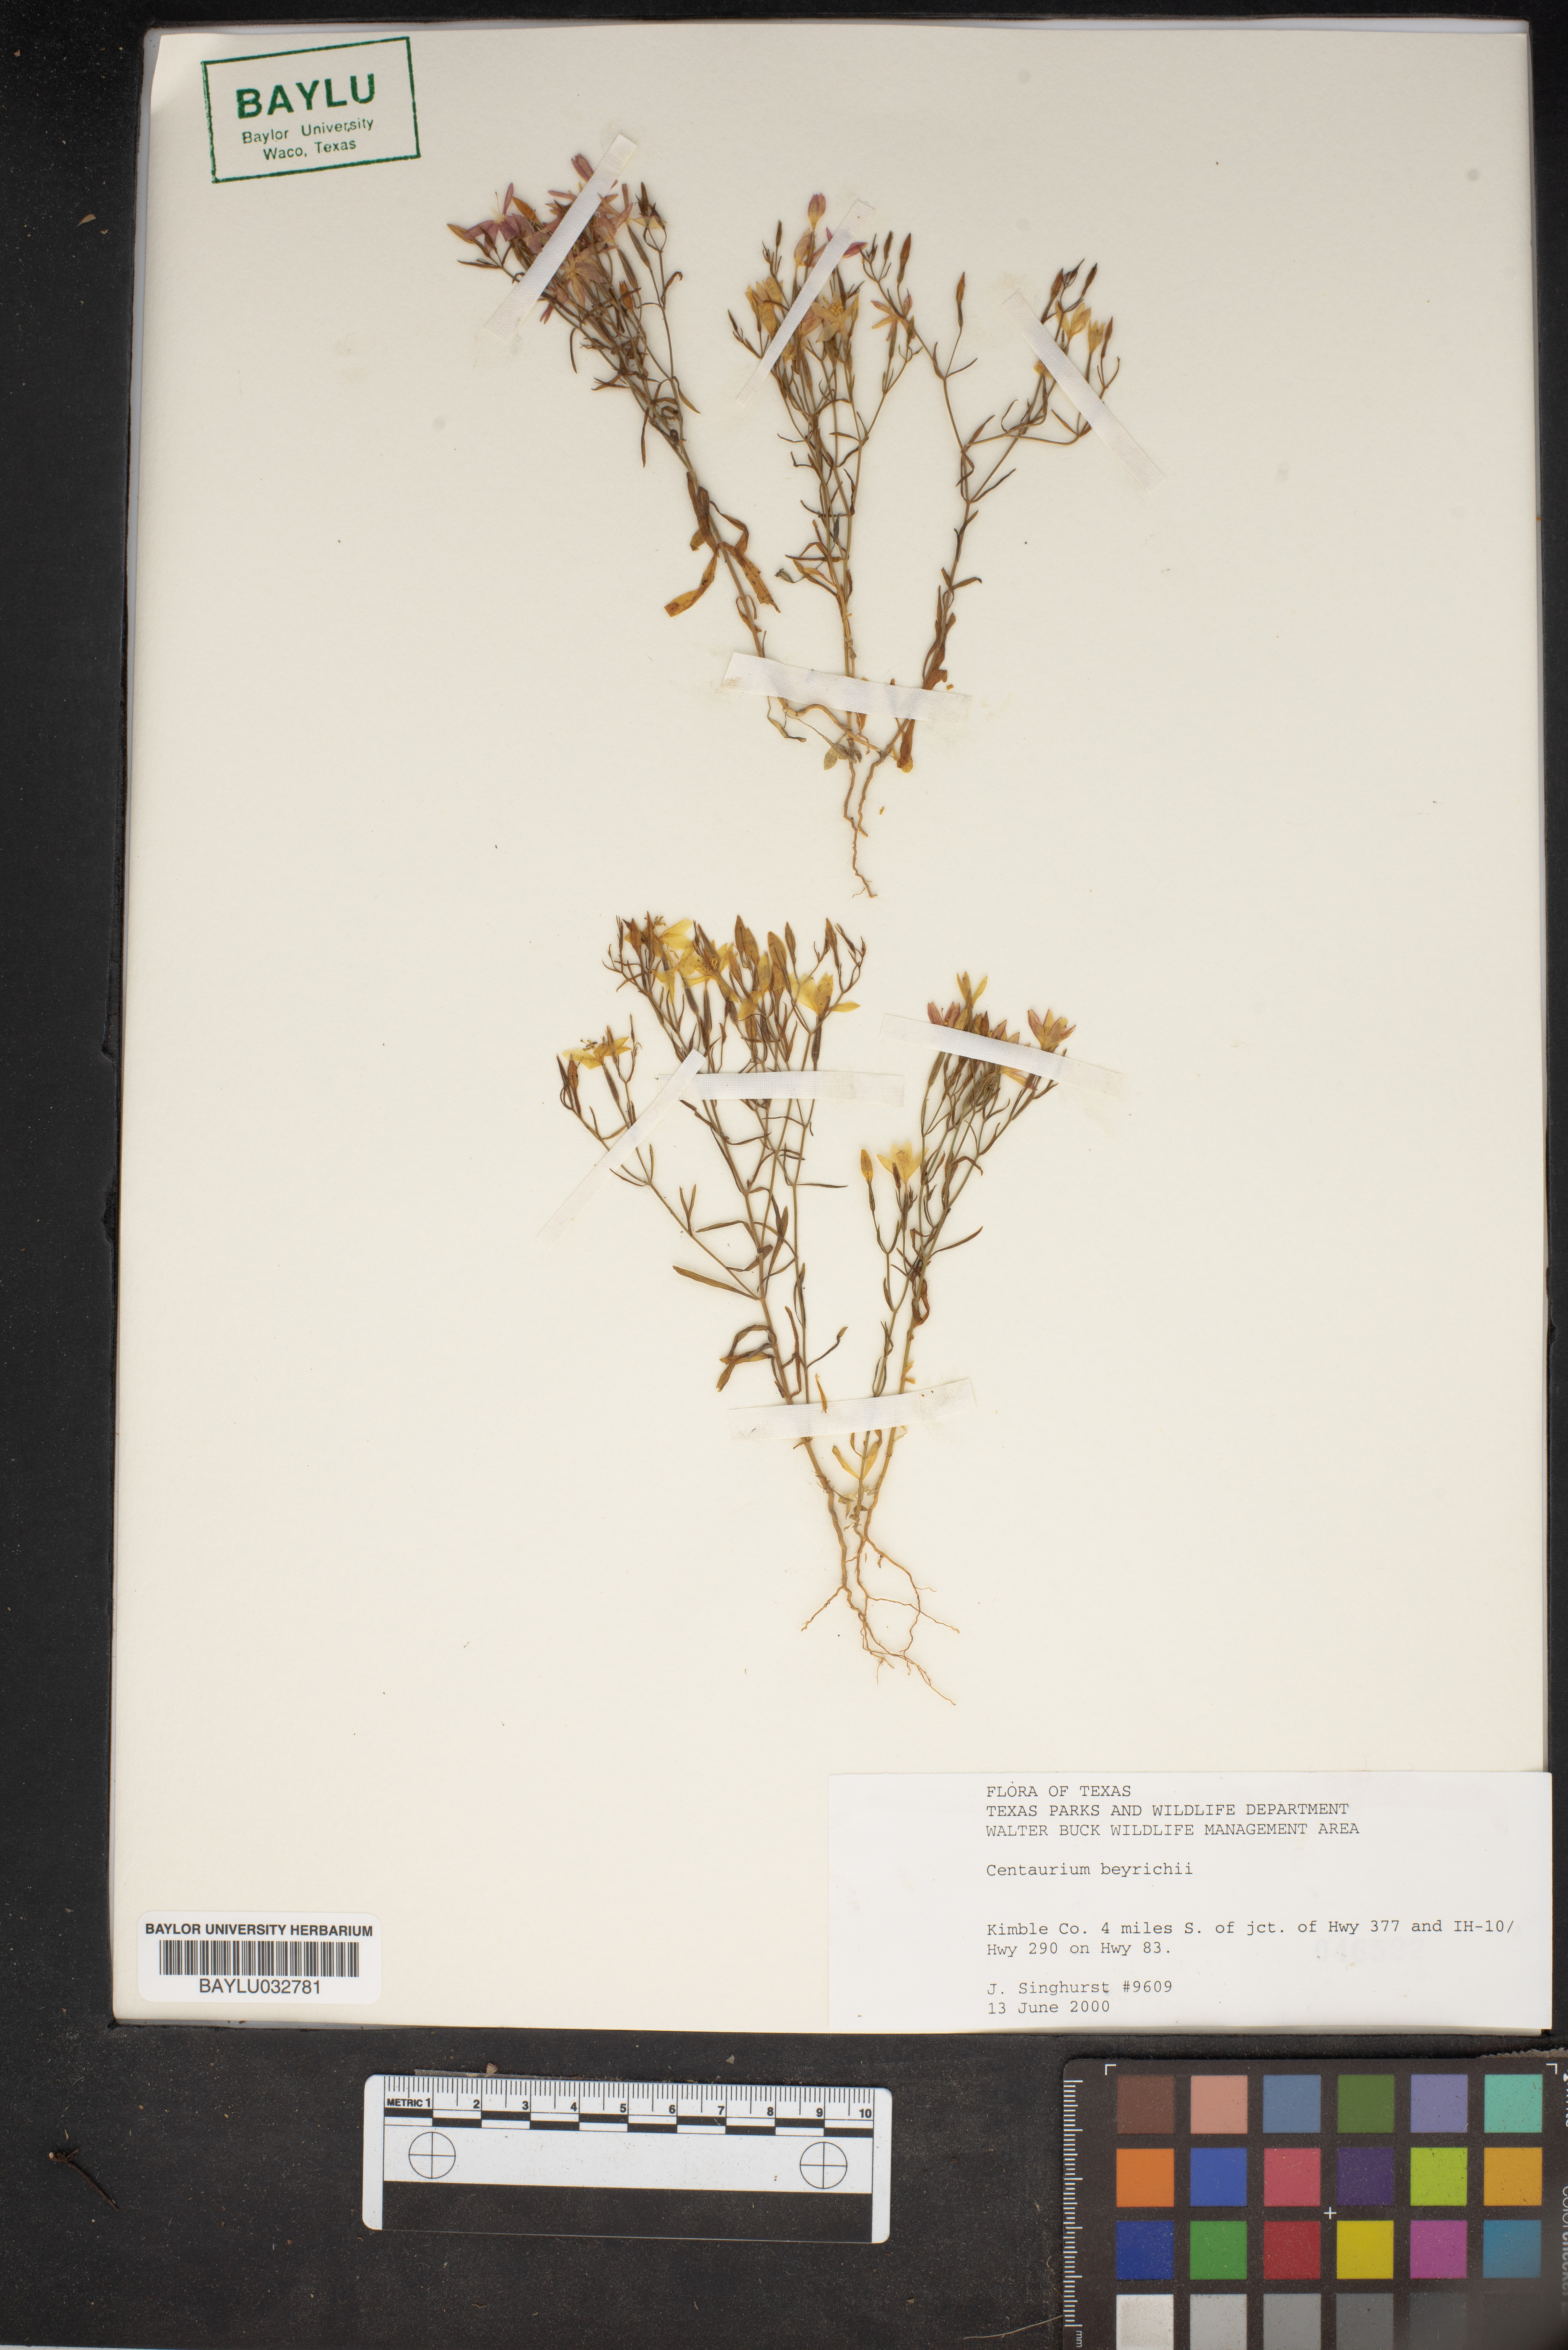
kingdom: Plantae
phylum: Tracheophyta
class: Magnoliopsida
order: Gentianales
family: Gentianaceae
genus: Zeltnera
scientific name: Zeltnera beyrichii
